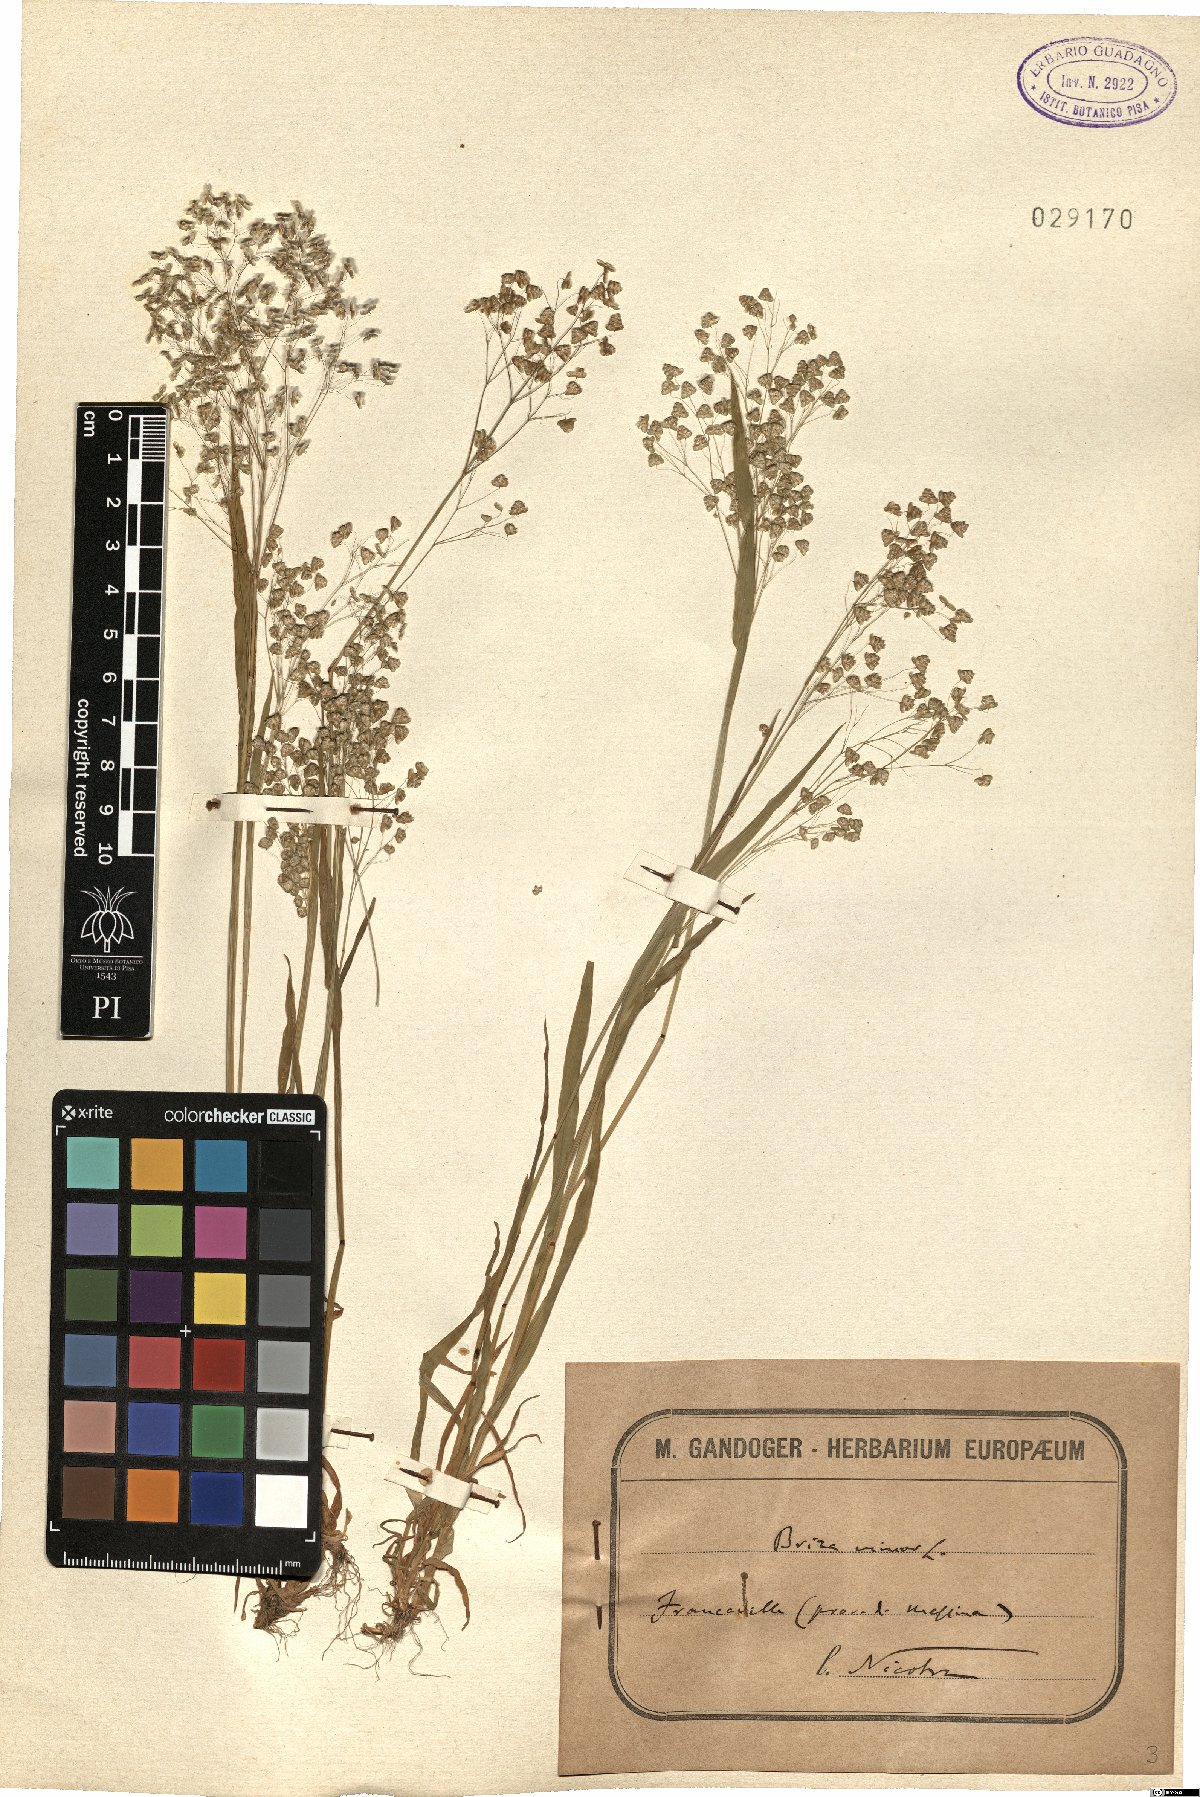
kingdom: Plantae
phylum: Tracheophyta
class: Liliopsida
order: Poales
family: Poaceae
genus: Briza
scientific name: Briza minor
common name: Lesser quaking-grass
